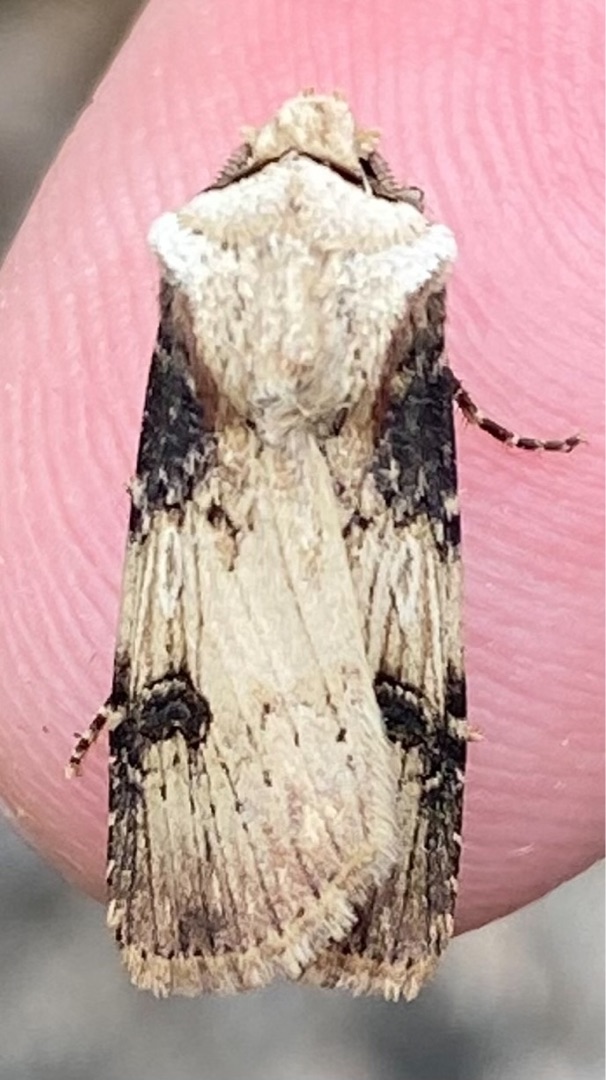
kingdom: Animalia
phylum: Arthropoda
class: Insecta
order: Lepidoptera
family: Noctuidae
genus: Agrotis
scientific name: Agrotis puta
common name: Frønnet landmand
